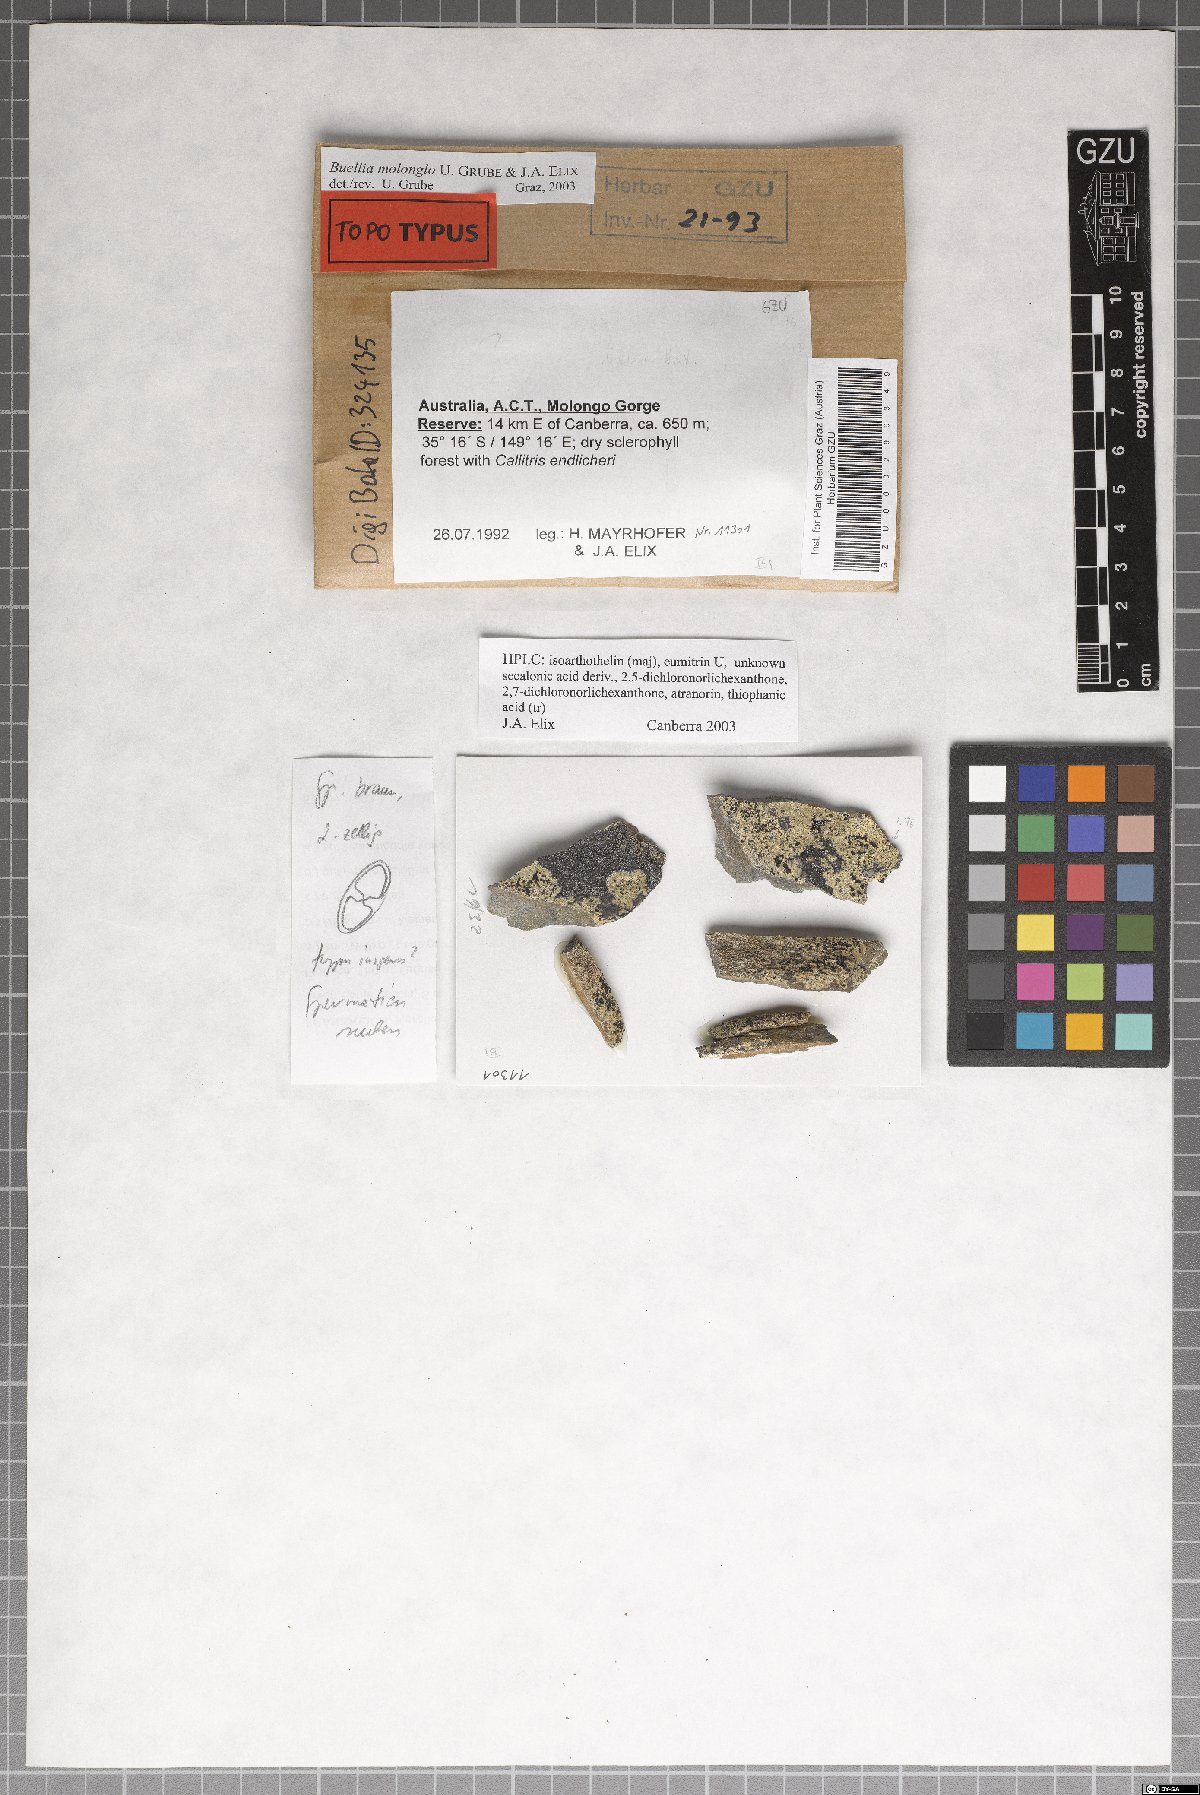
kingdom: Fungi
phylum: Ascomycota
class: Lecanoromycetes
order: Caliciales
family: Caliciaceae
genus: Buellia
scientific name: Buellia molonglo
